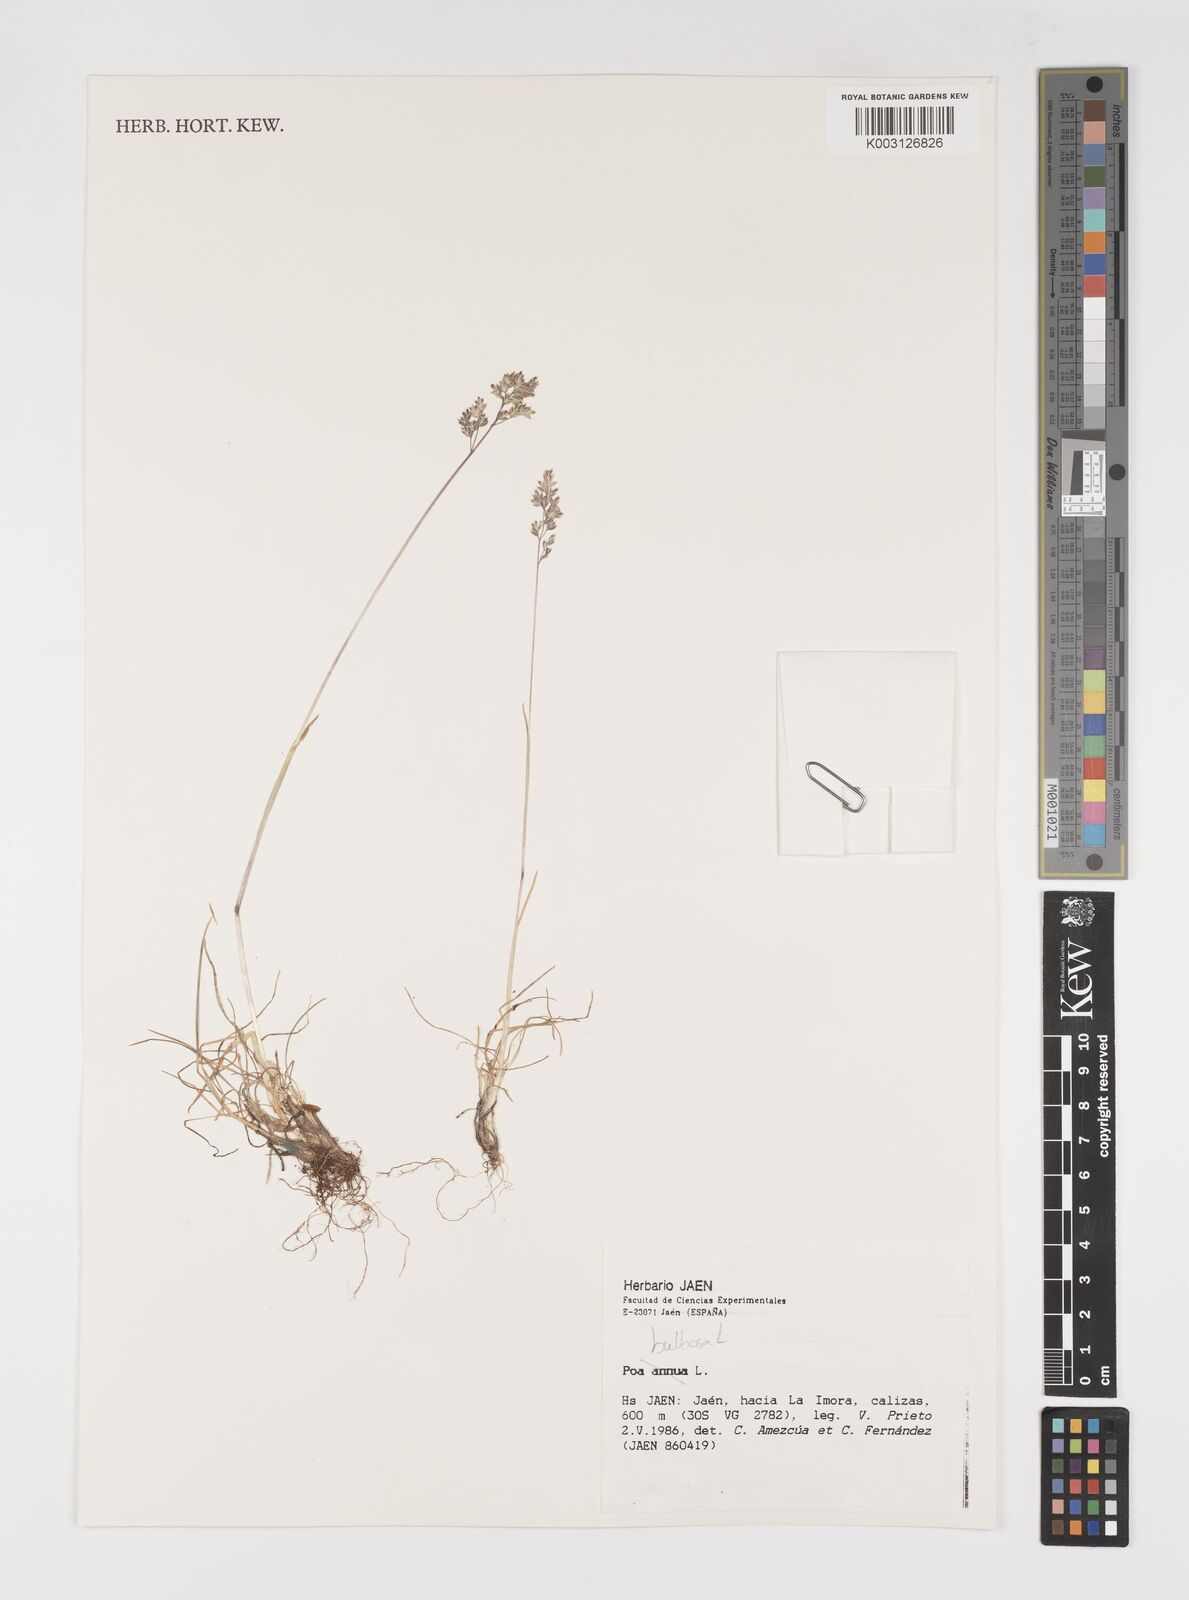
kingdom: Plantae
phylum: Tracheophyta
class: Liliopsida
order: Poales
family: Poaceae
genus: Poa
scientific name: Poa bulbosa
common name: Bulbous bluegrass
